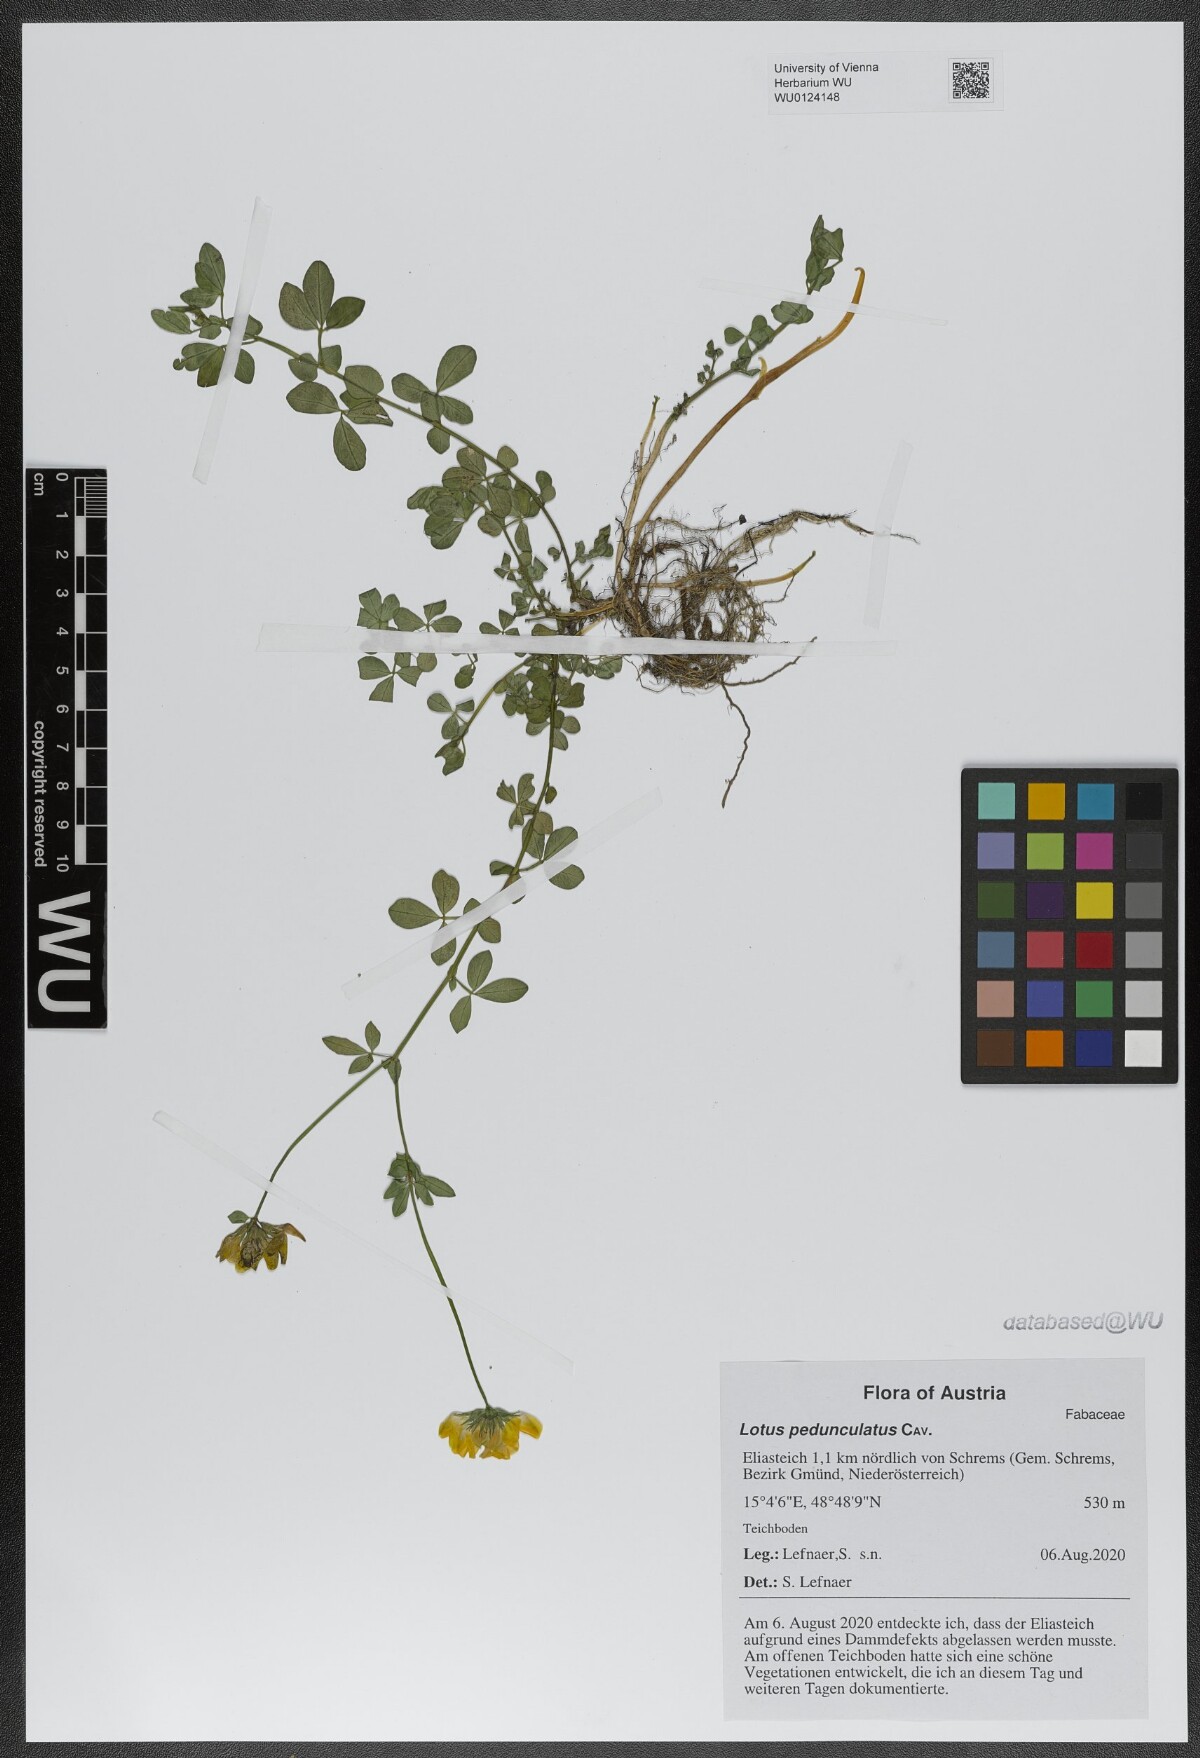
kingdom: Plantae
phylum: Tracheophyta
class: Magnoliopsida
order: Fabales
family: Fabaceae
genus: Lotus
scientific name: Lotus pedunculatus
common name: Greater birdsfoot-trefoil
